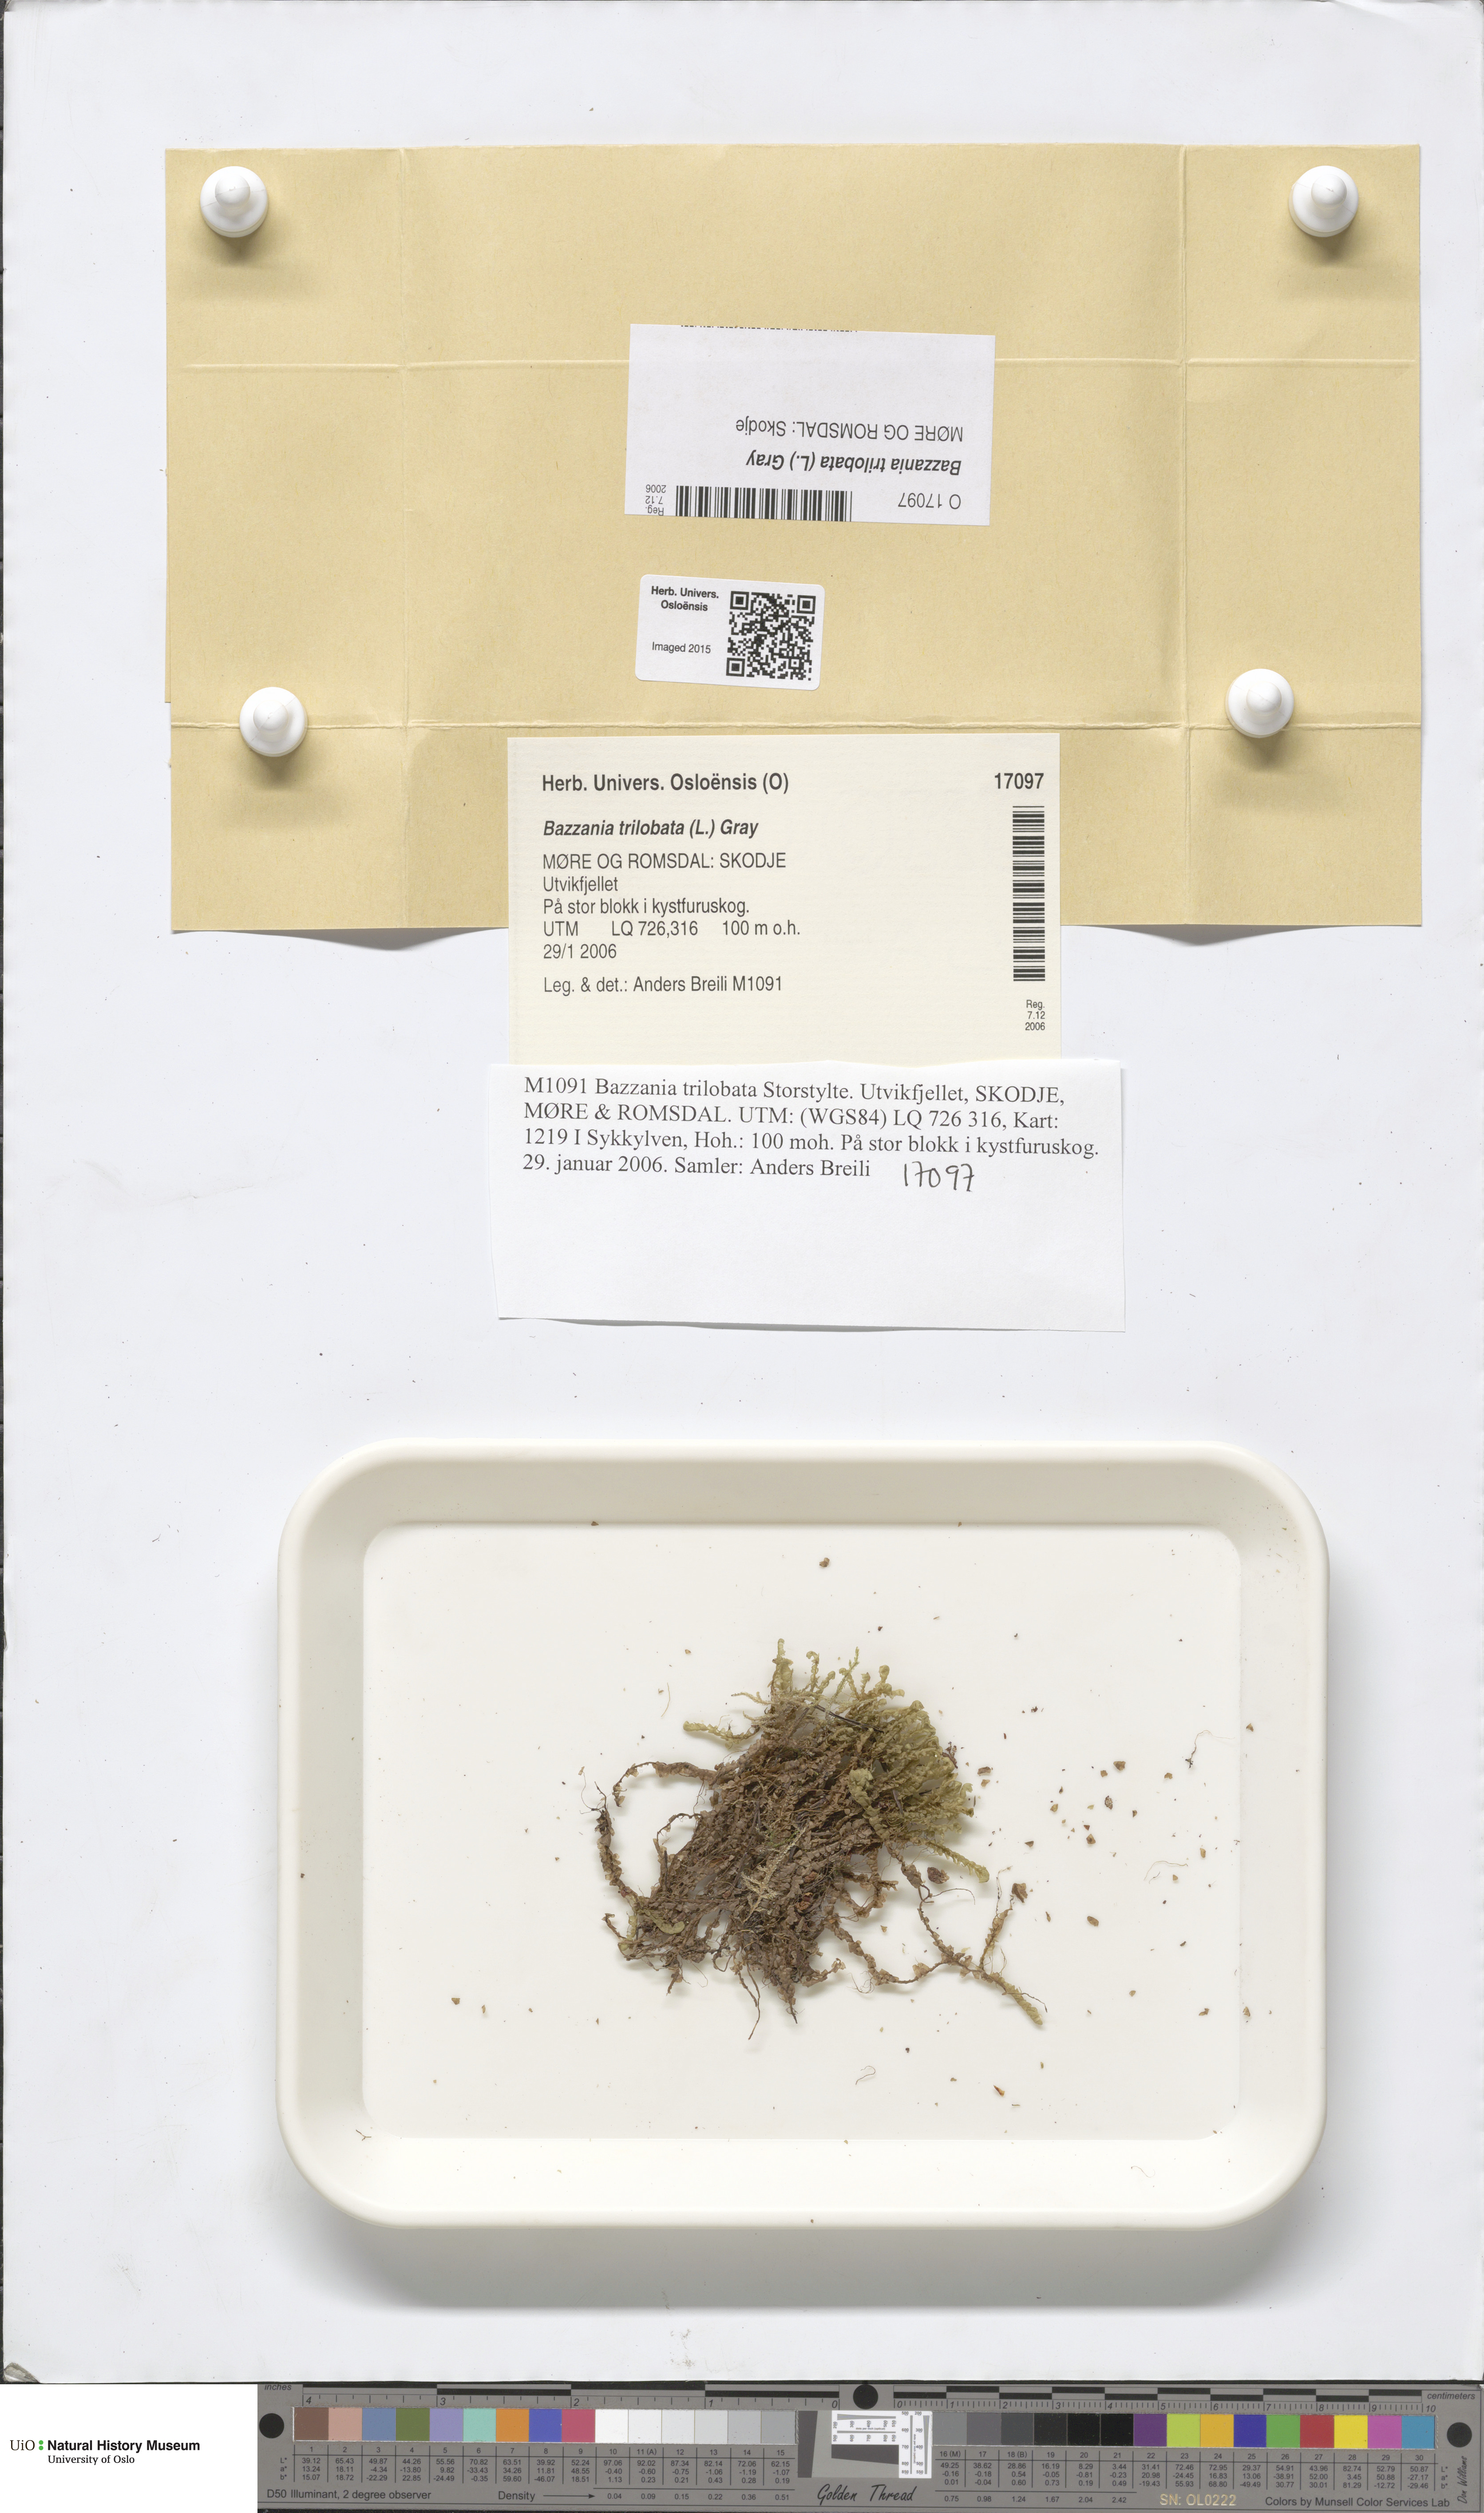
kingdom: Plantae
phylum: Marchantiophyta
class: Jungermanniopsida
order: Jungermanniales
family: Lepidoziaceae
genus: Bazzania
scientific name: Bazzania trilobata
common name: Three-lobed whipwort
